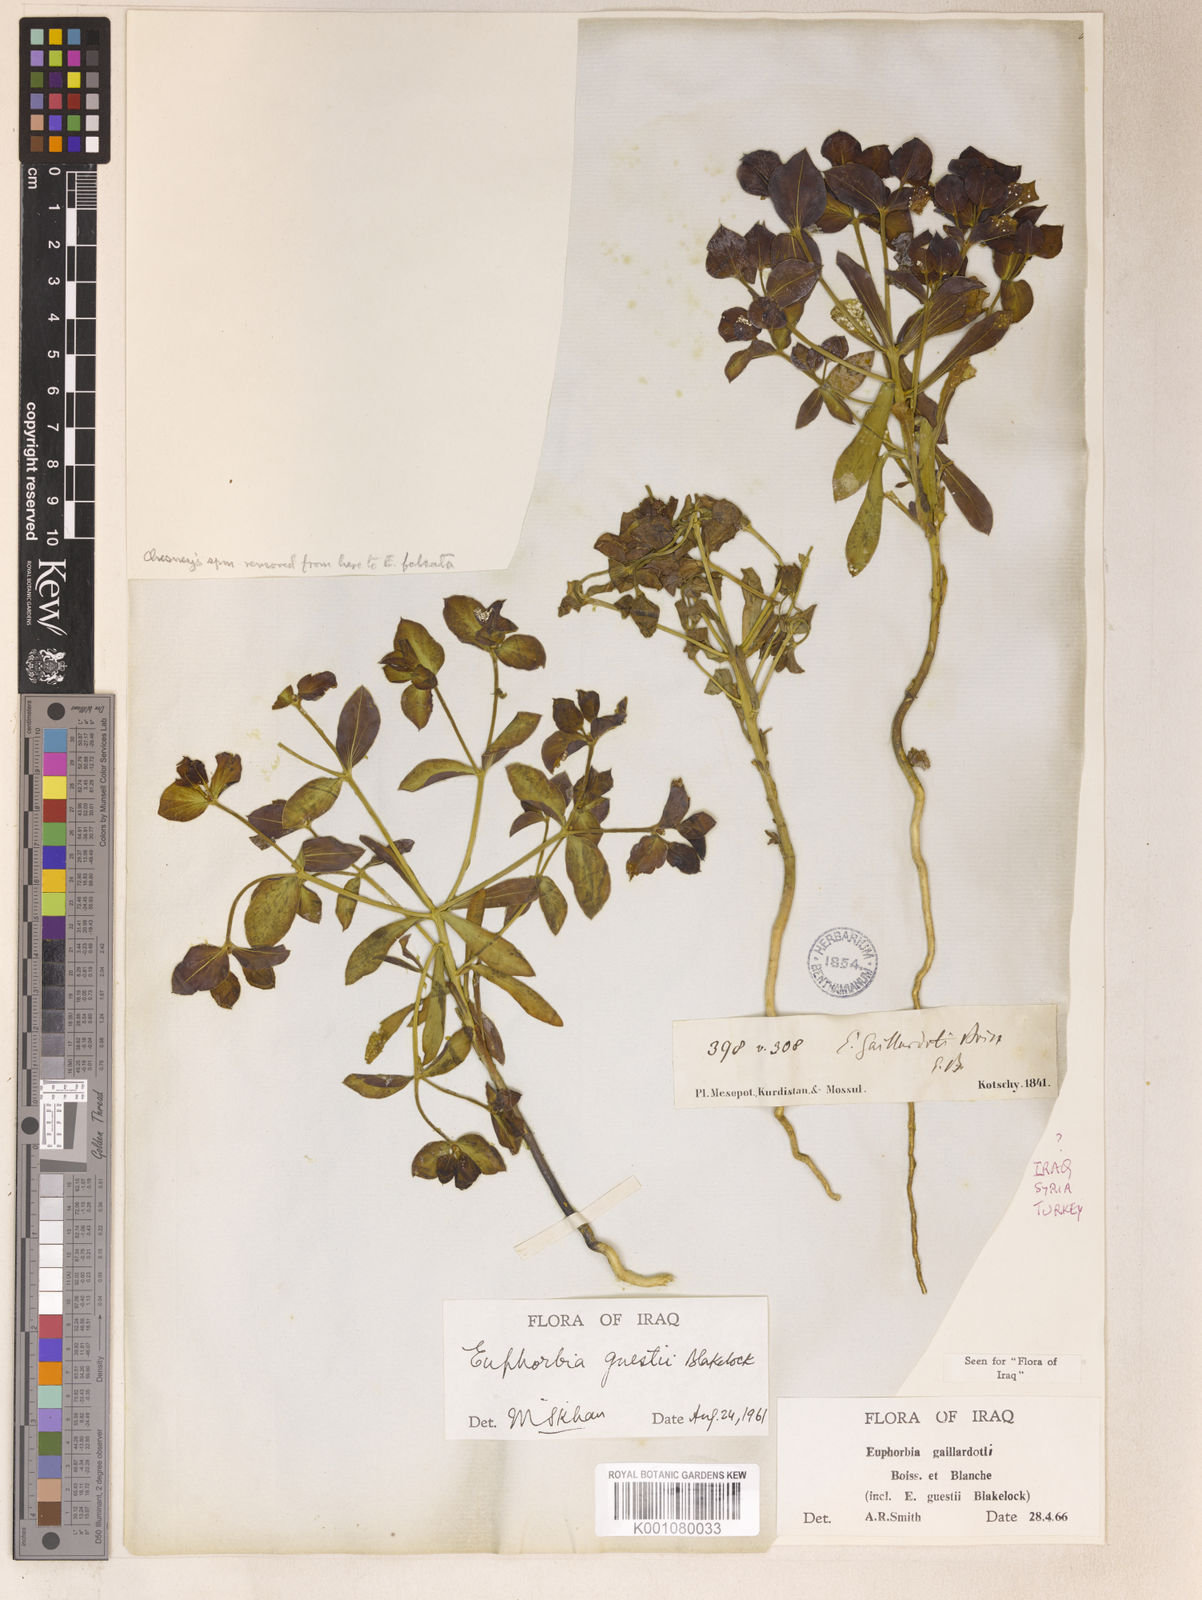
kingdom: Plantae
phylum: Tracheophyta
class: Magnoliopsida
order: Malpighiales
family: Euphorbiaceae
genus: Euphorbia
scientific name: Euphorbia gaillardotii
